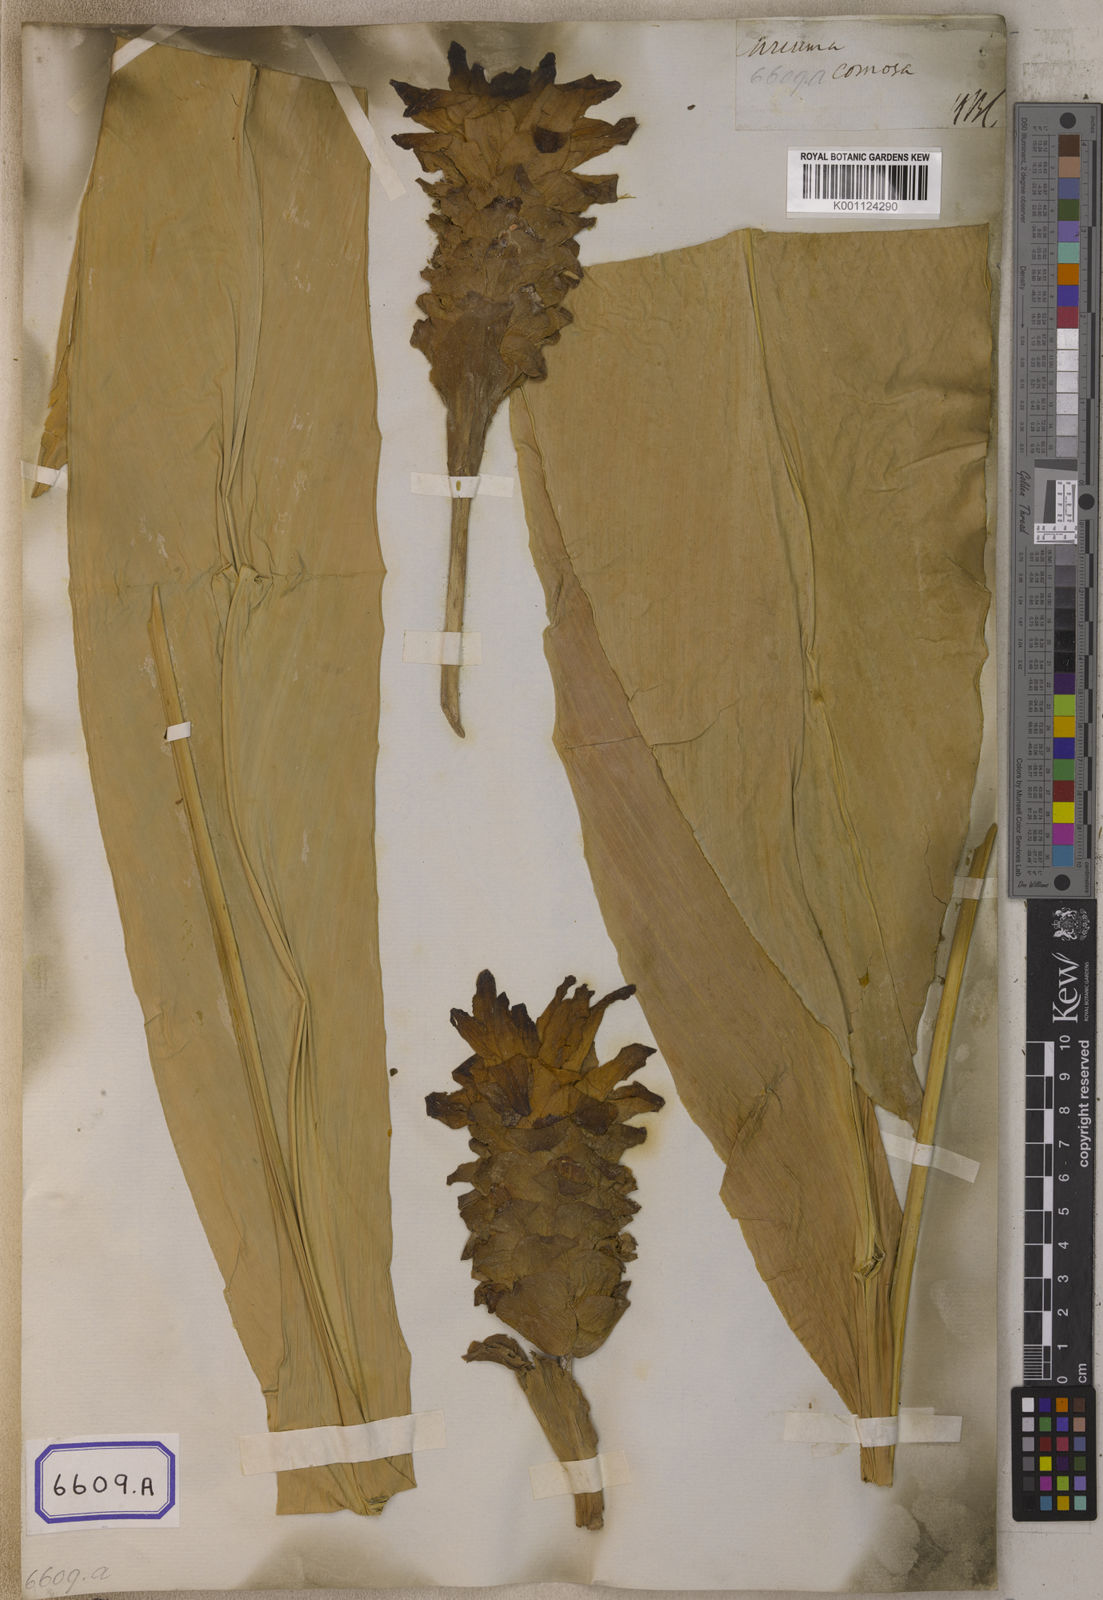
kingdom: Plantae
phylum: Tracheophyta
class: Liliopsida
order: Zingiberales
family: Zingiberaceae
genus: Curcuma
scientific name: Curcuma comosa
